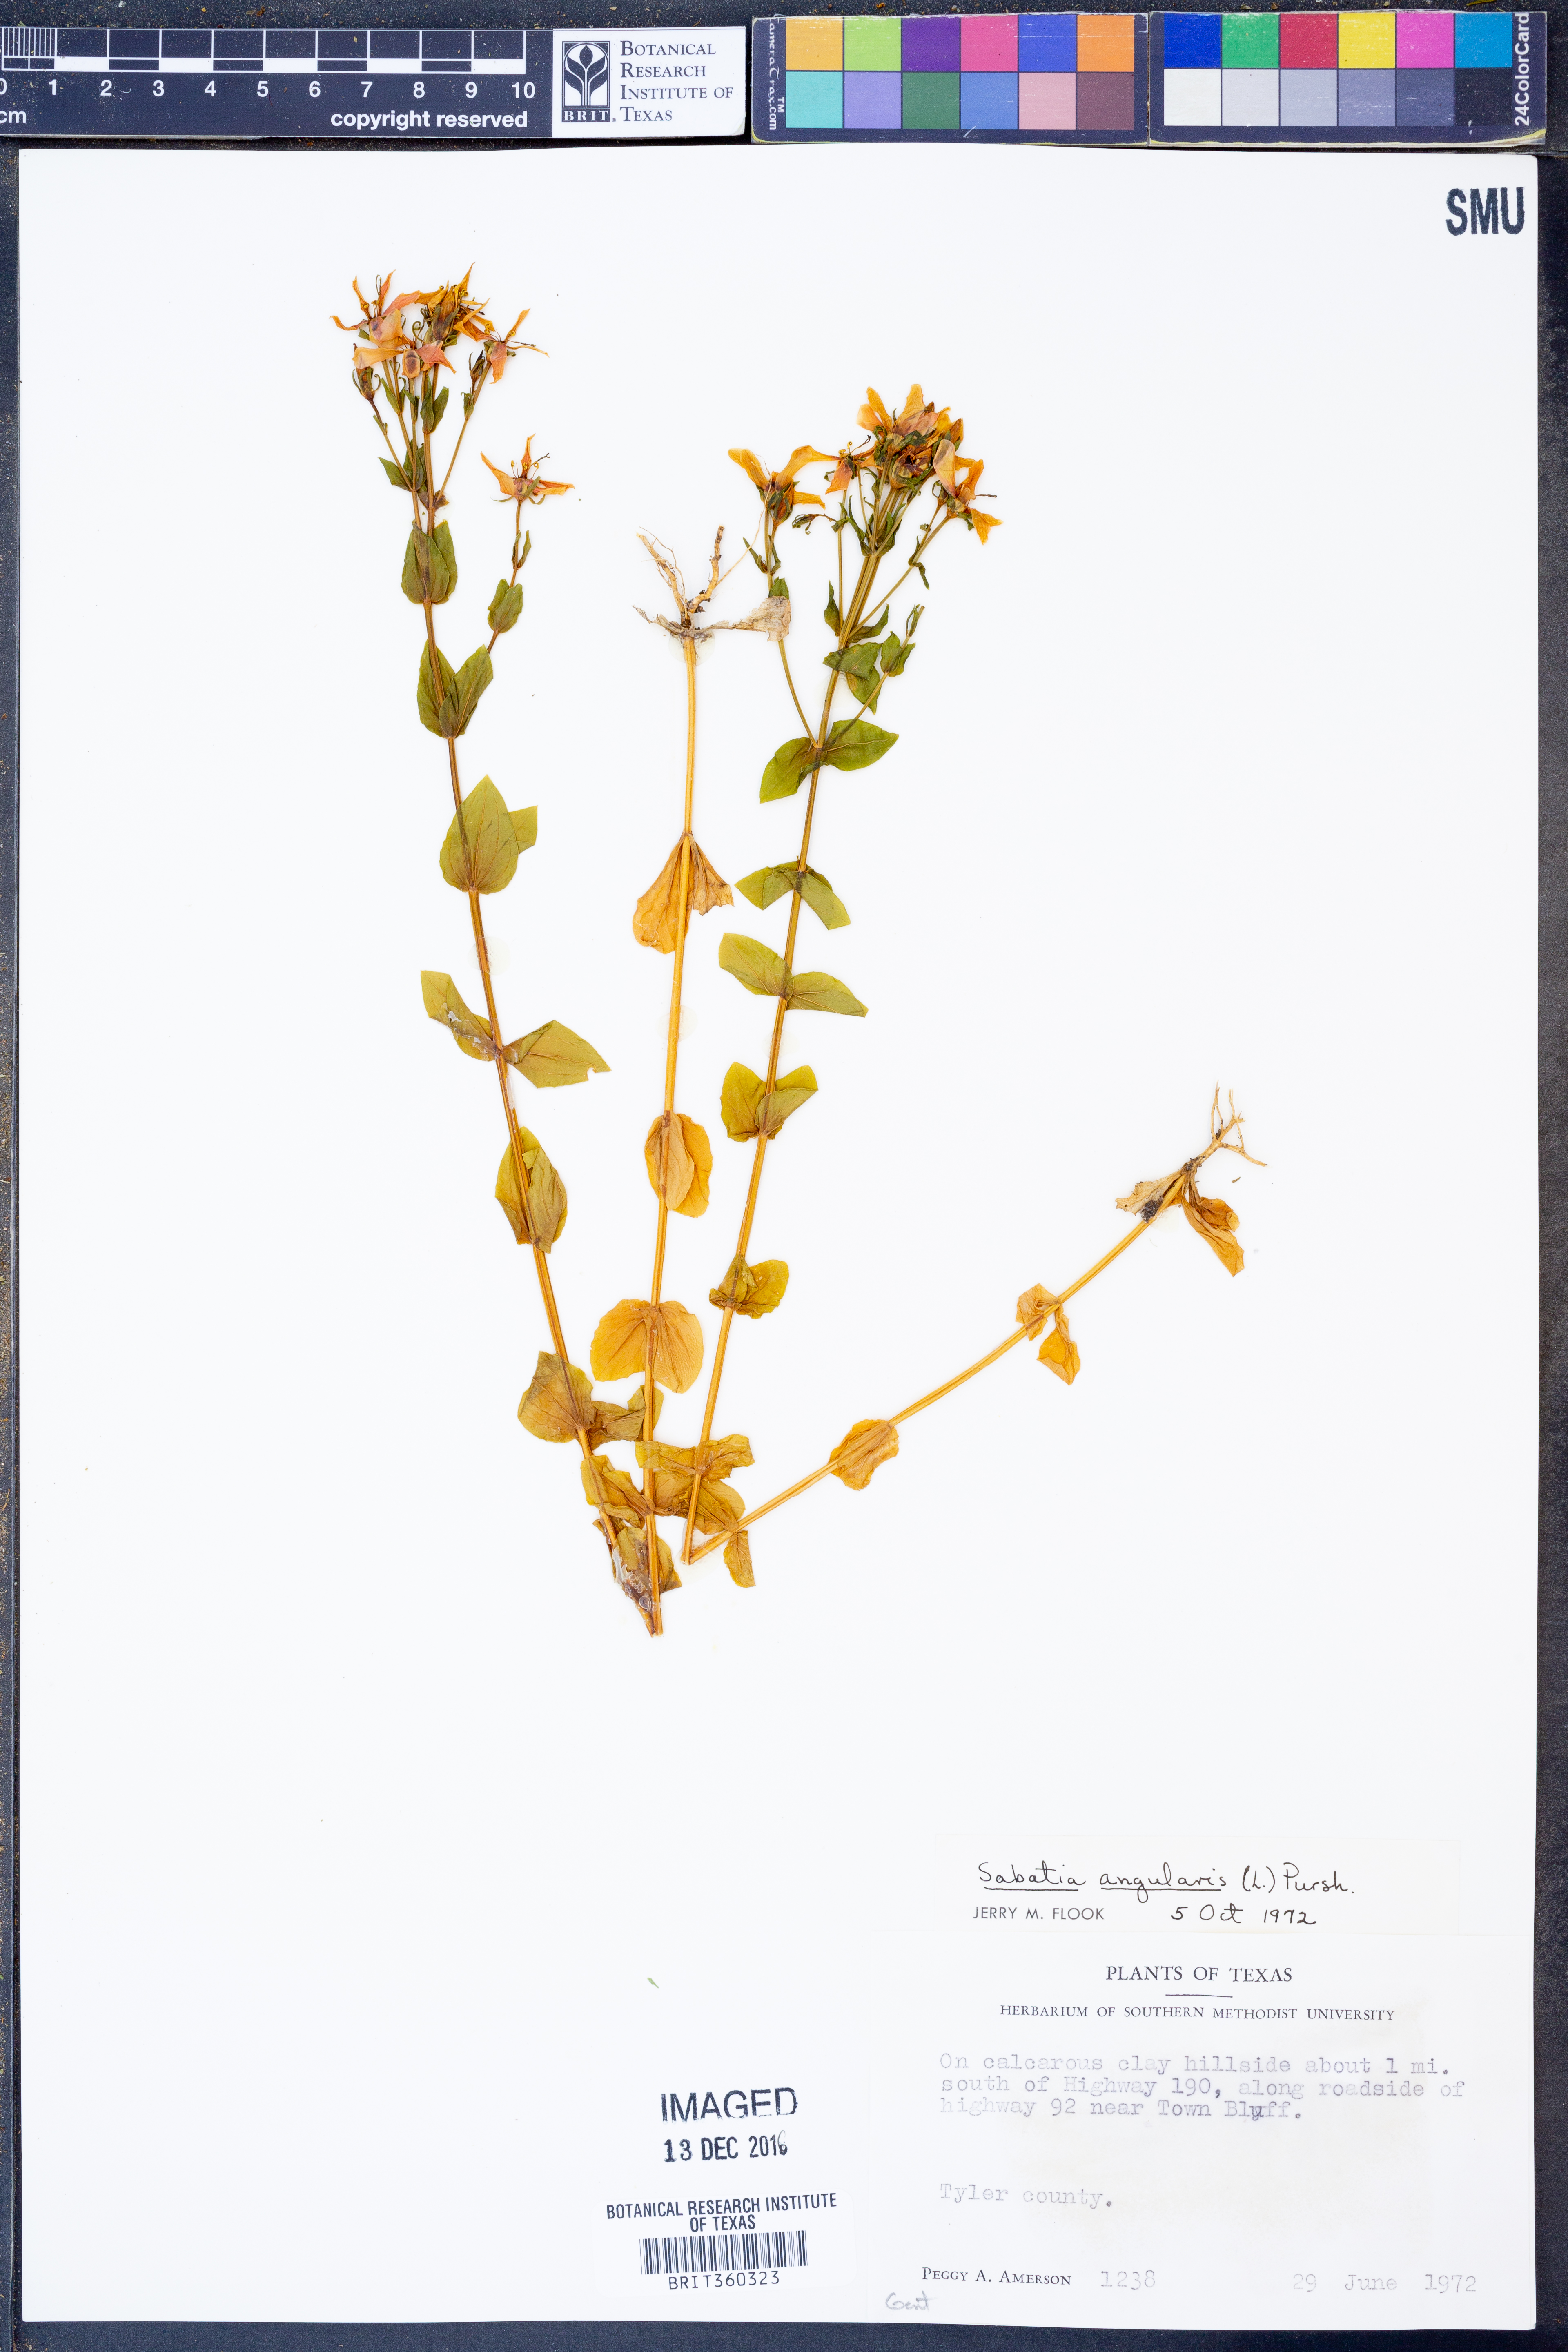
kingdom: Plantae
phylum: Tracheophyta
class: Magnoliopsida
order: Gentianales
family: Gentianaceae
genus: Sabatia
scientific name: Sabatia angularis
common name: Rose-pink
